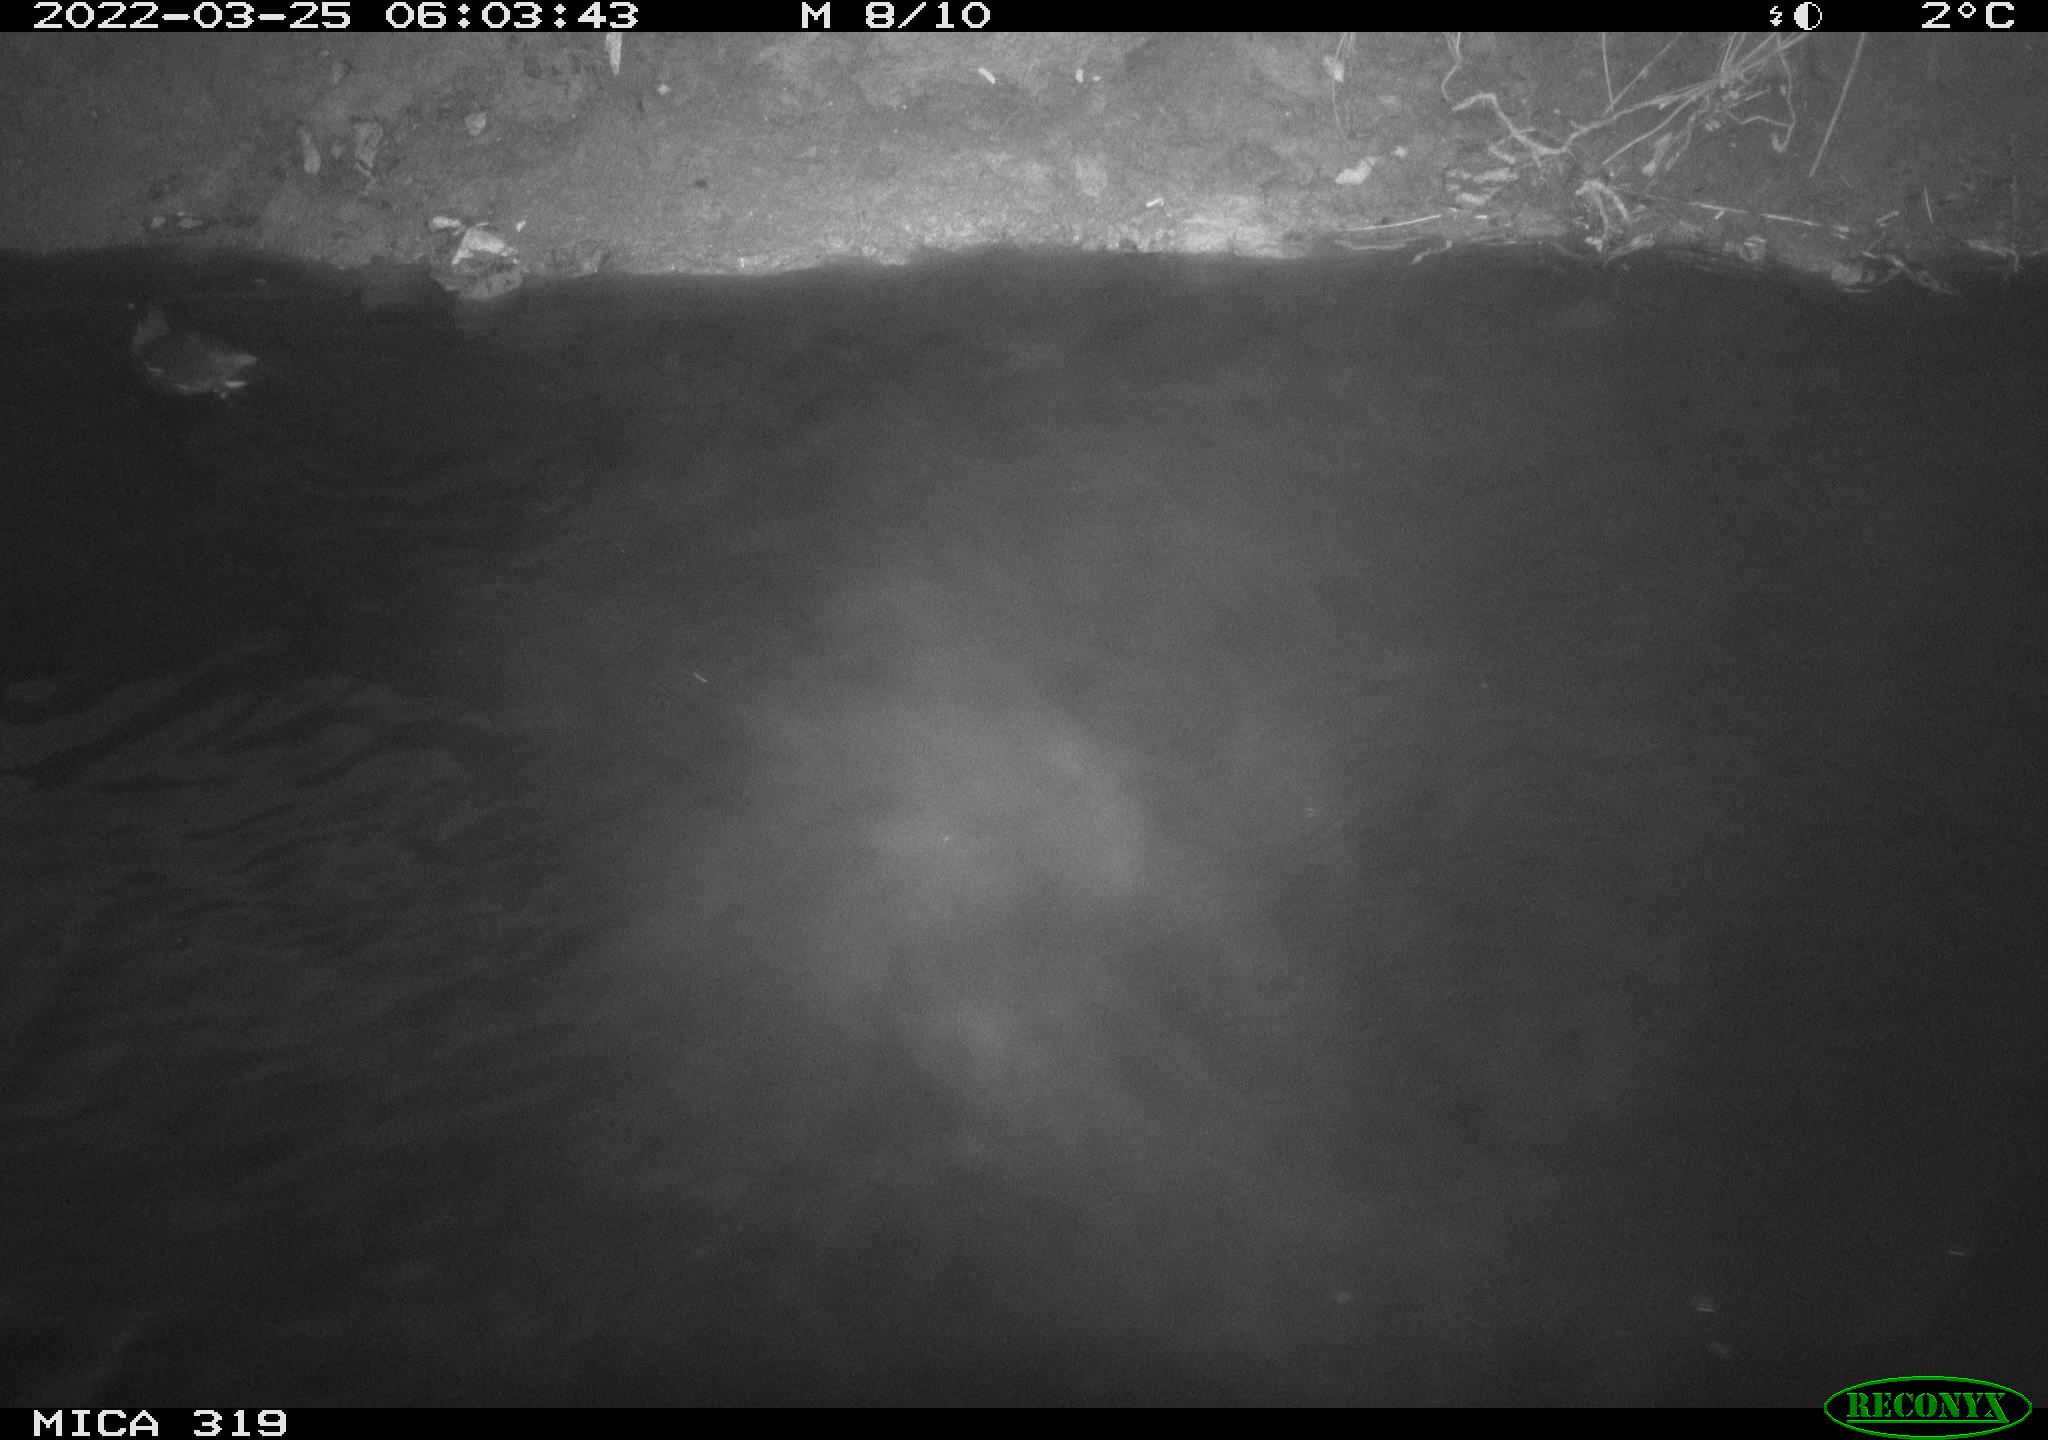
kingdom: Animalia
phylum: Chordata
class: Aves
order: Gruiformes
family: Rallidae
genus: Gallinula
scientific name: Gallinula chloropus
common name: Common moorhen
